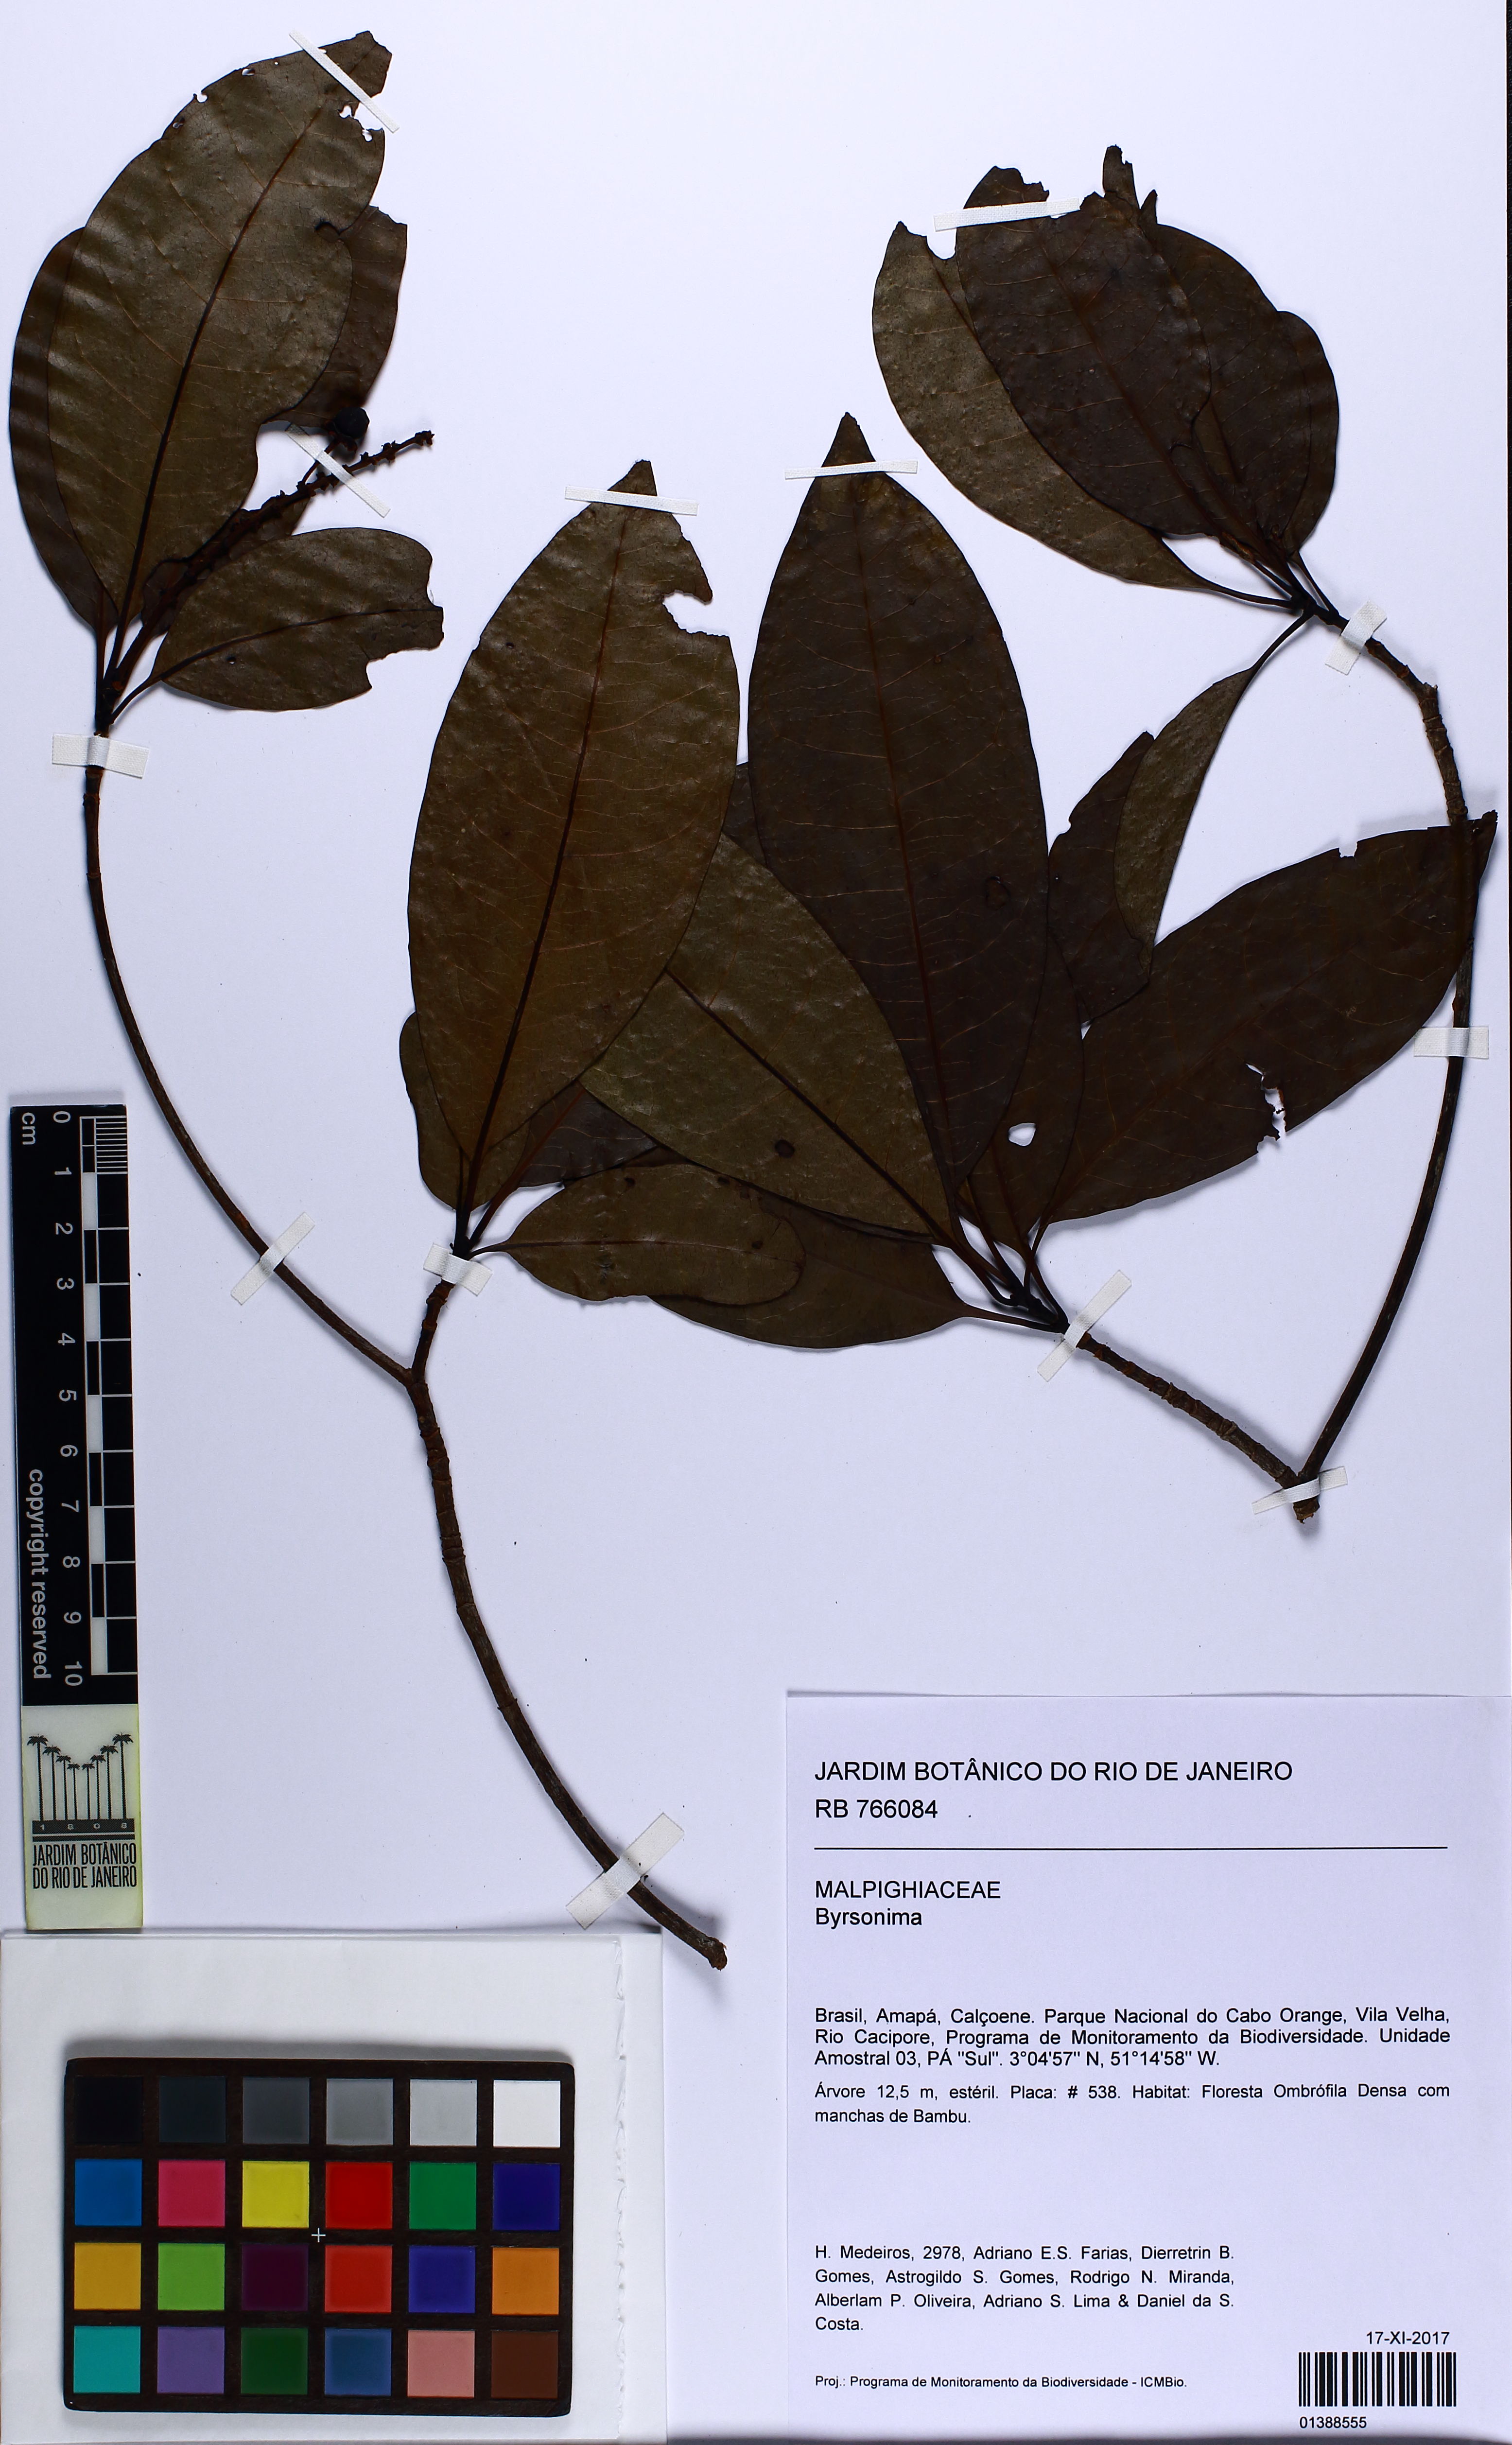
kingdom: Plantae
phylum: Tracheophyta
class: Magnoliopsida
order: Malpighiales
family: Malpighiaceae
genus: Byrsonima
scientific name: Byrsonima
